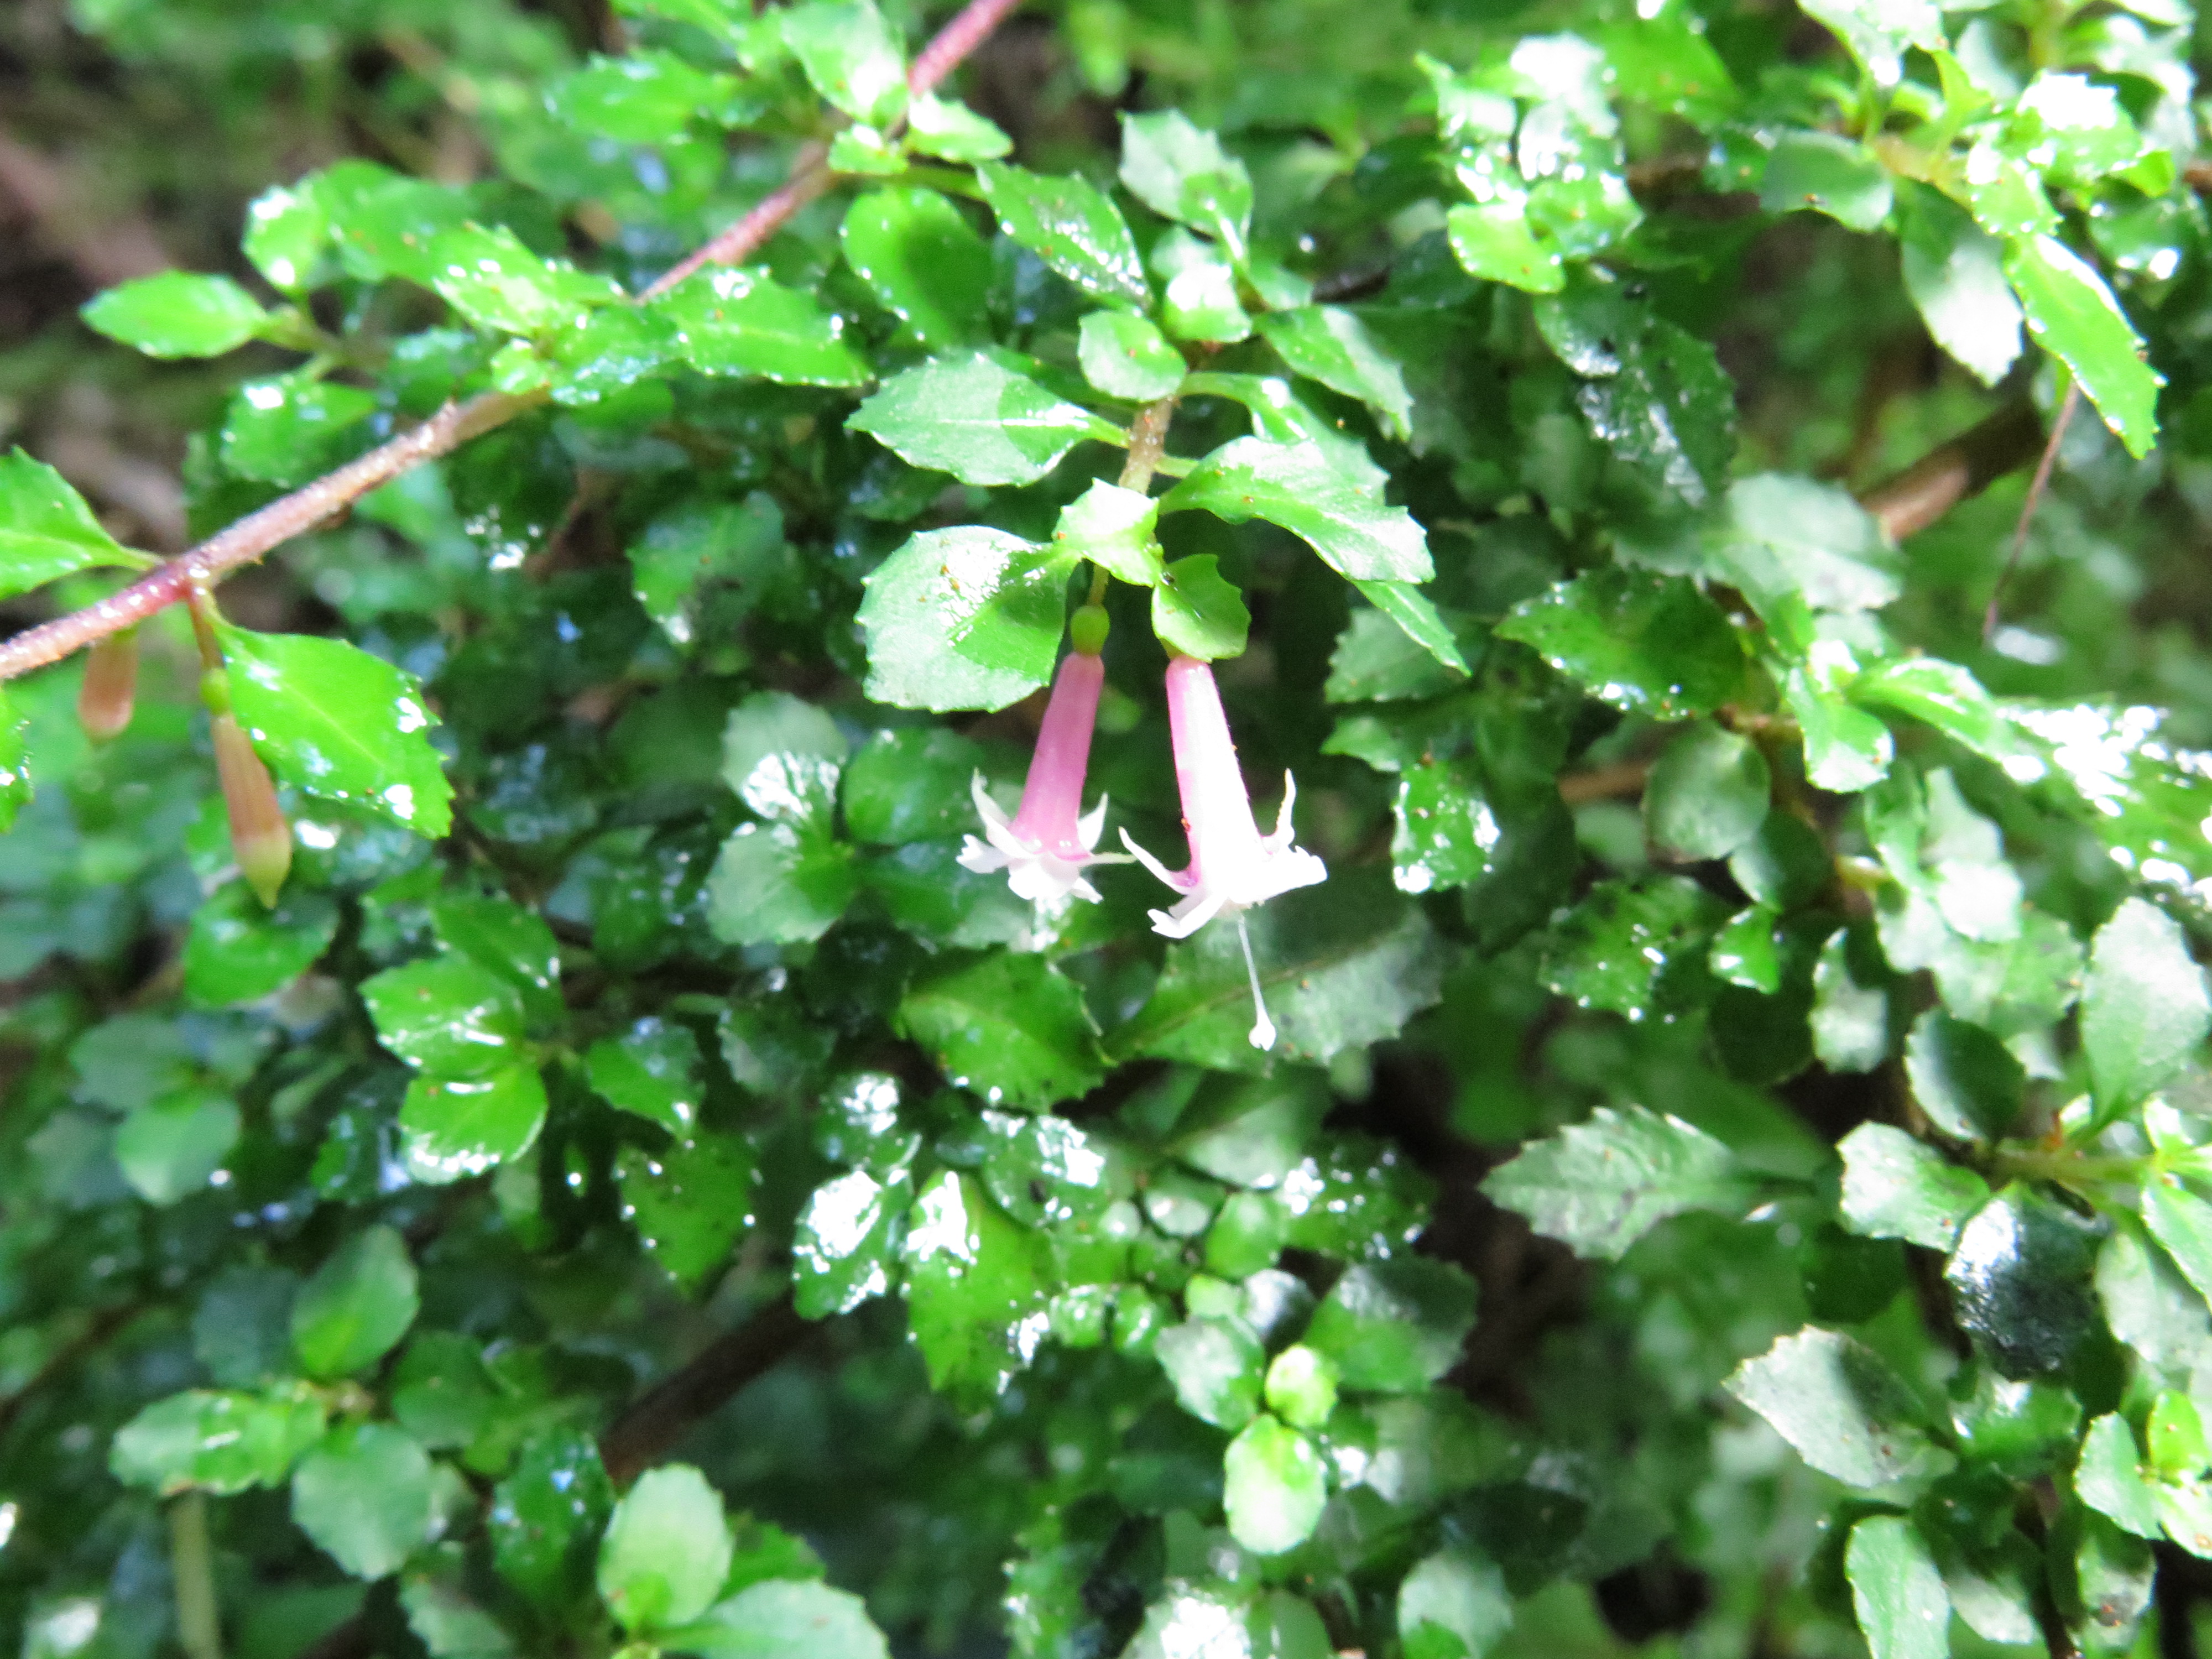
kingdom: Plantae
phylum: Tracheophyta
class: Magnoliopsida
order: Myrtales
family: Onagraceae
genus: Fuchsia
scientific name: Fuchsia thymifolia
